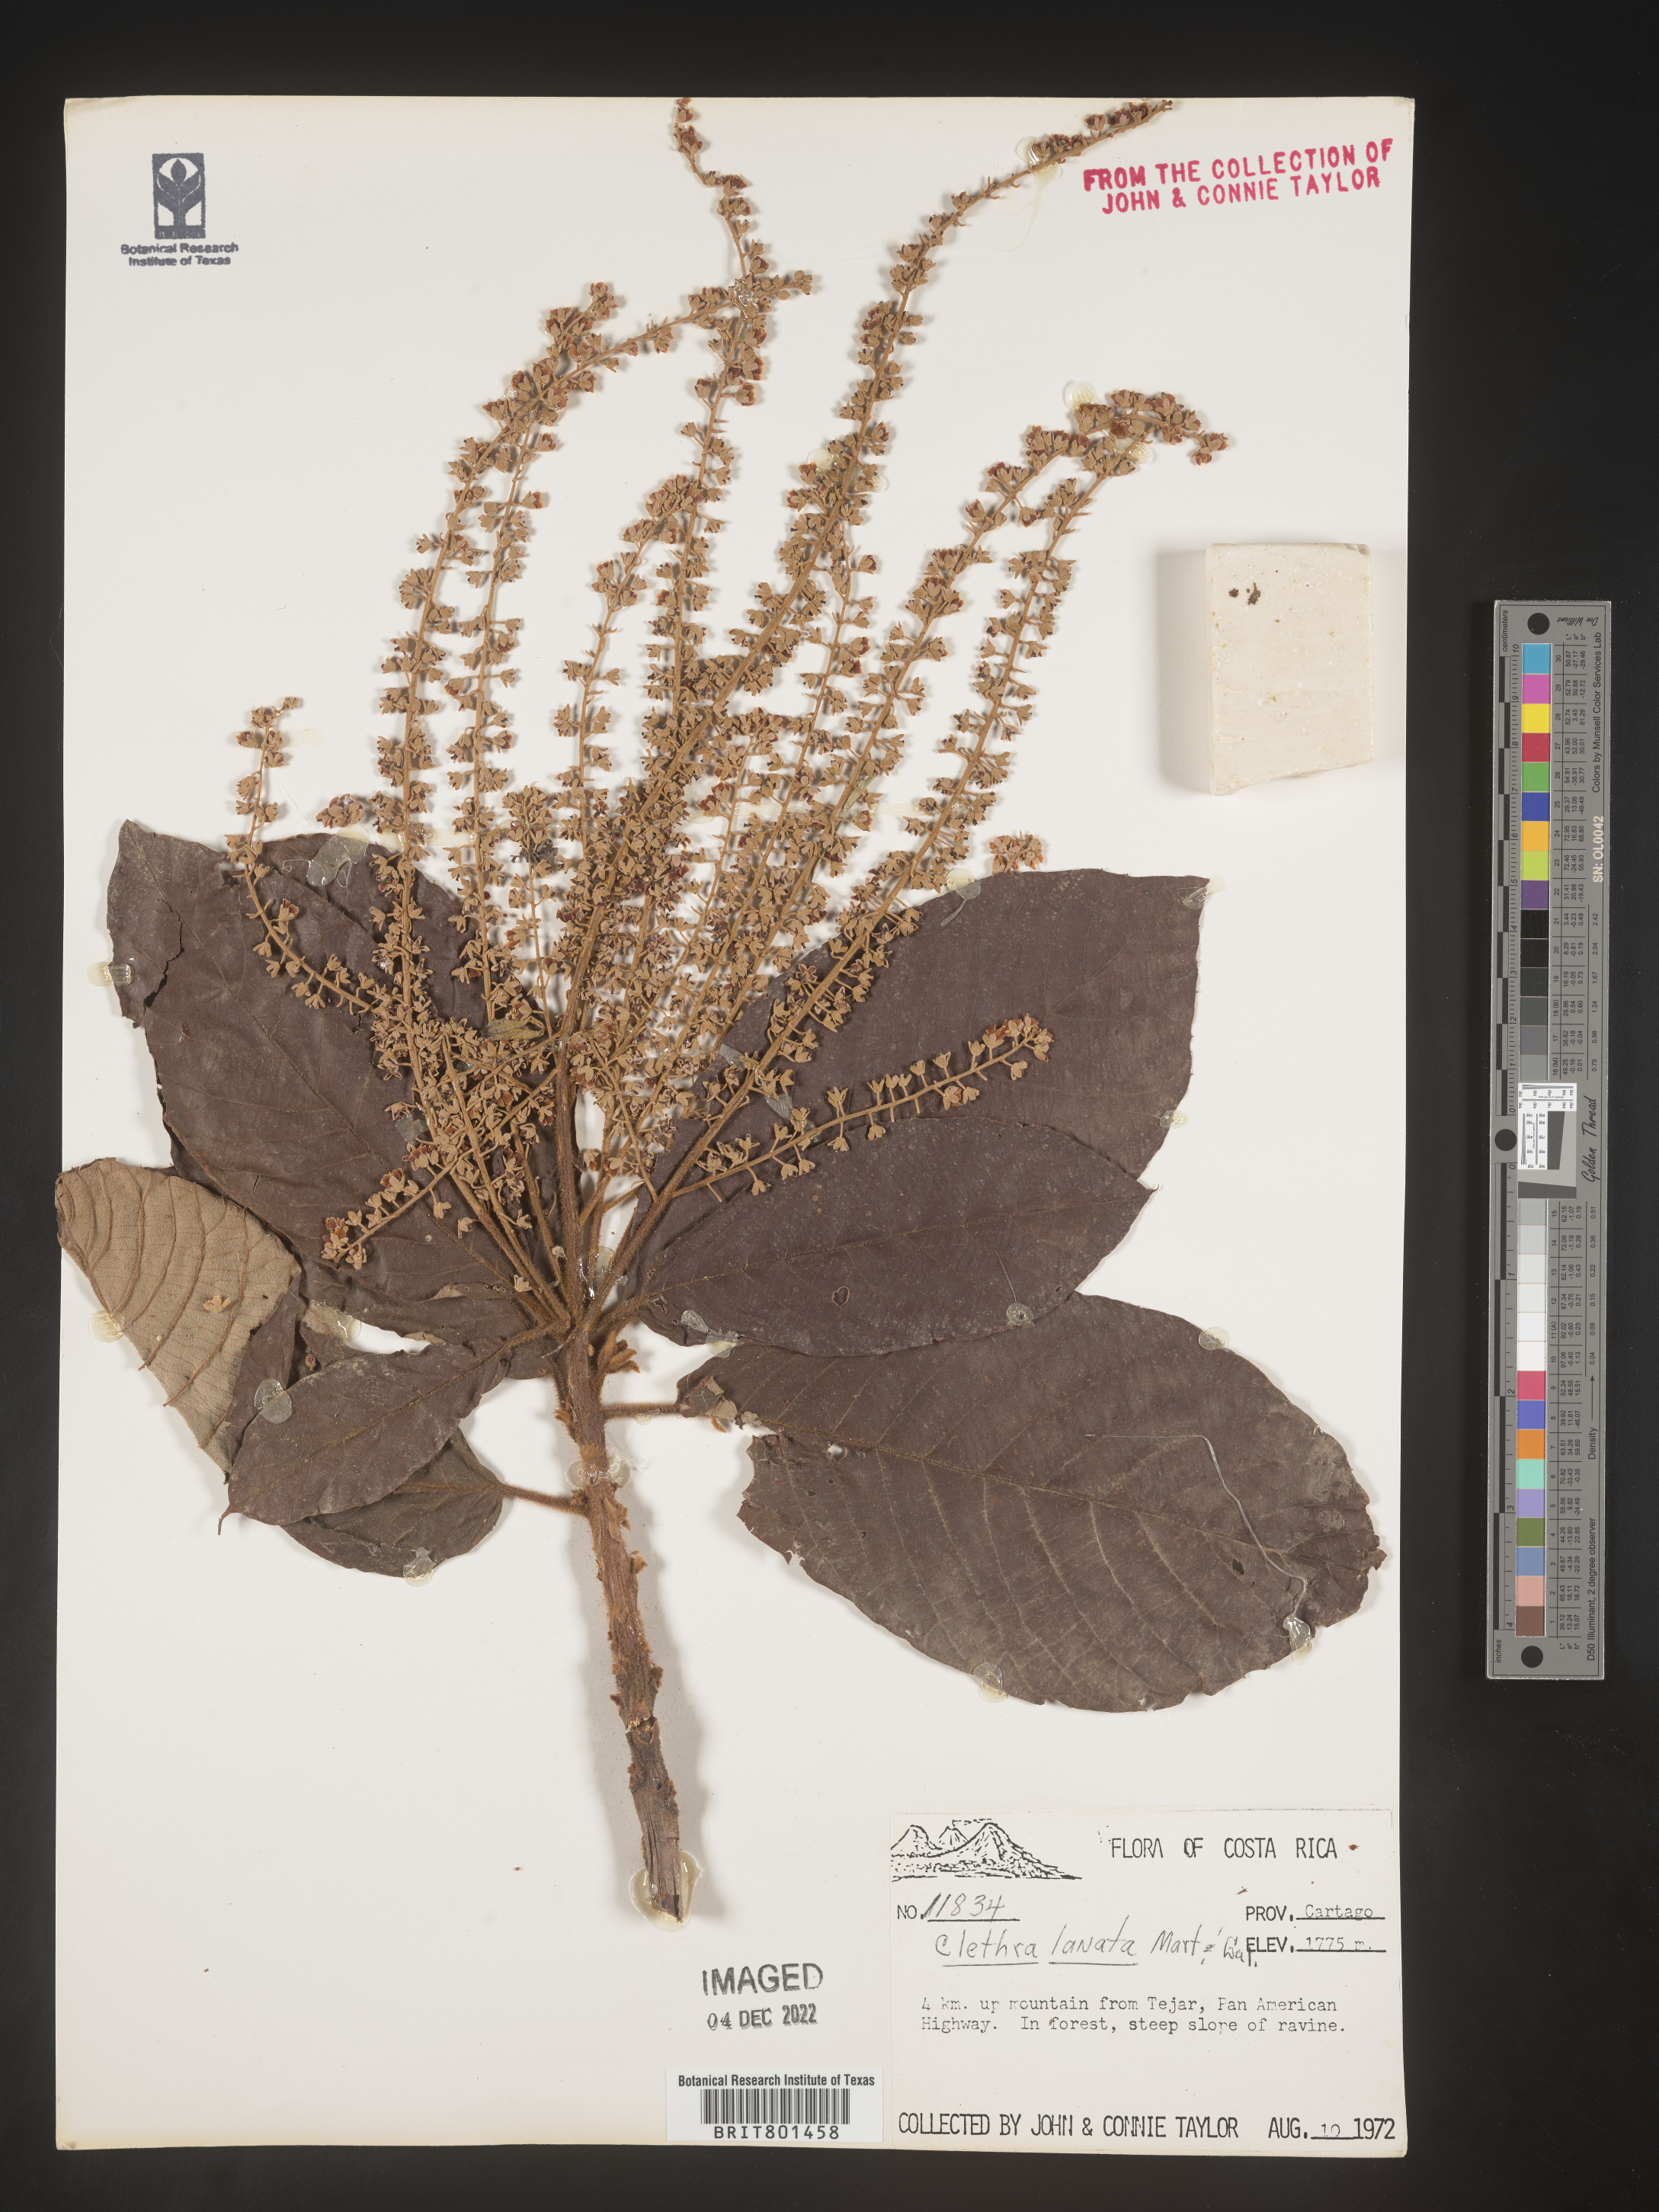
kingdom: Plantae
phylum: Tracheophyta
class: Magnoliopsida
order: Ericales
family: Clethraceae
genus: Clethra
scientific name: Clethra
